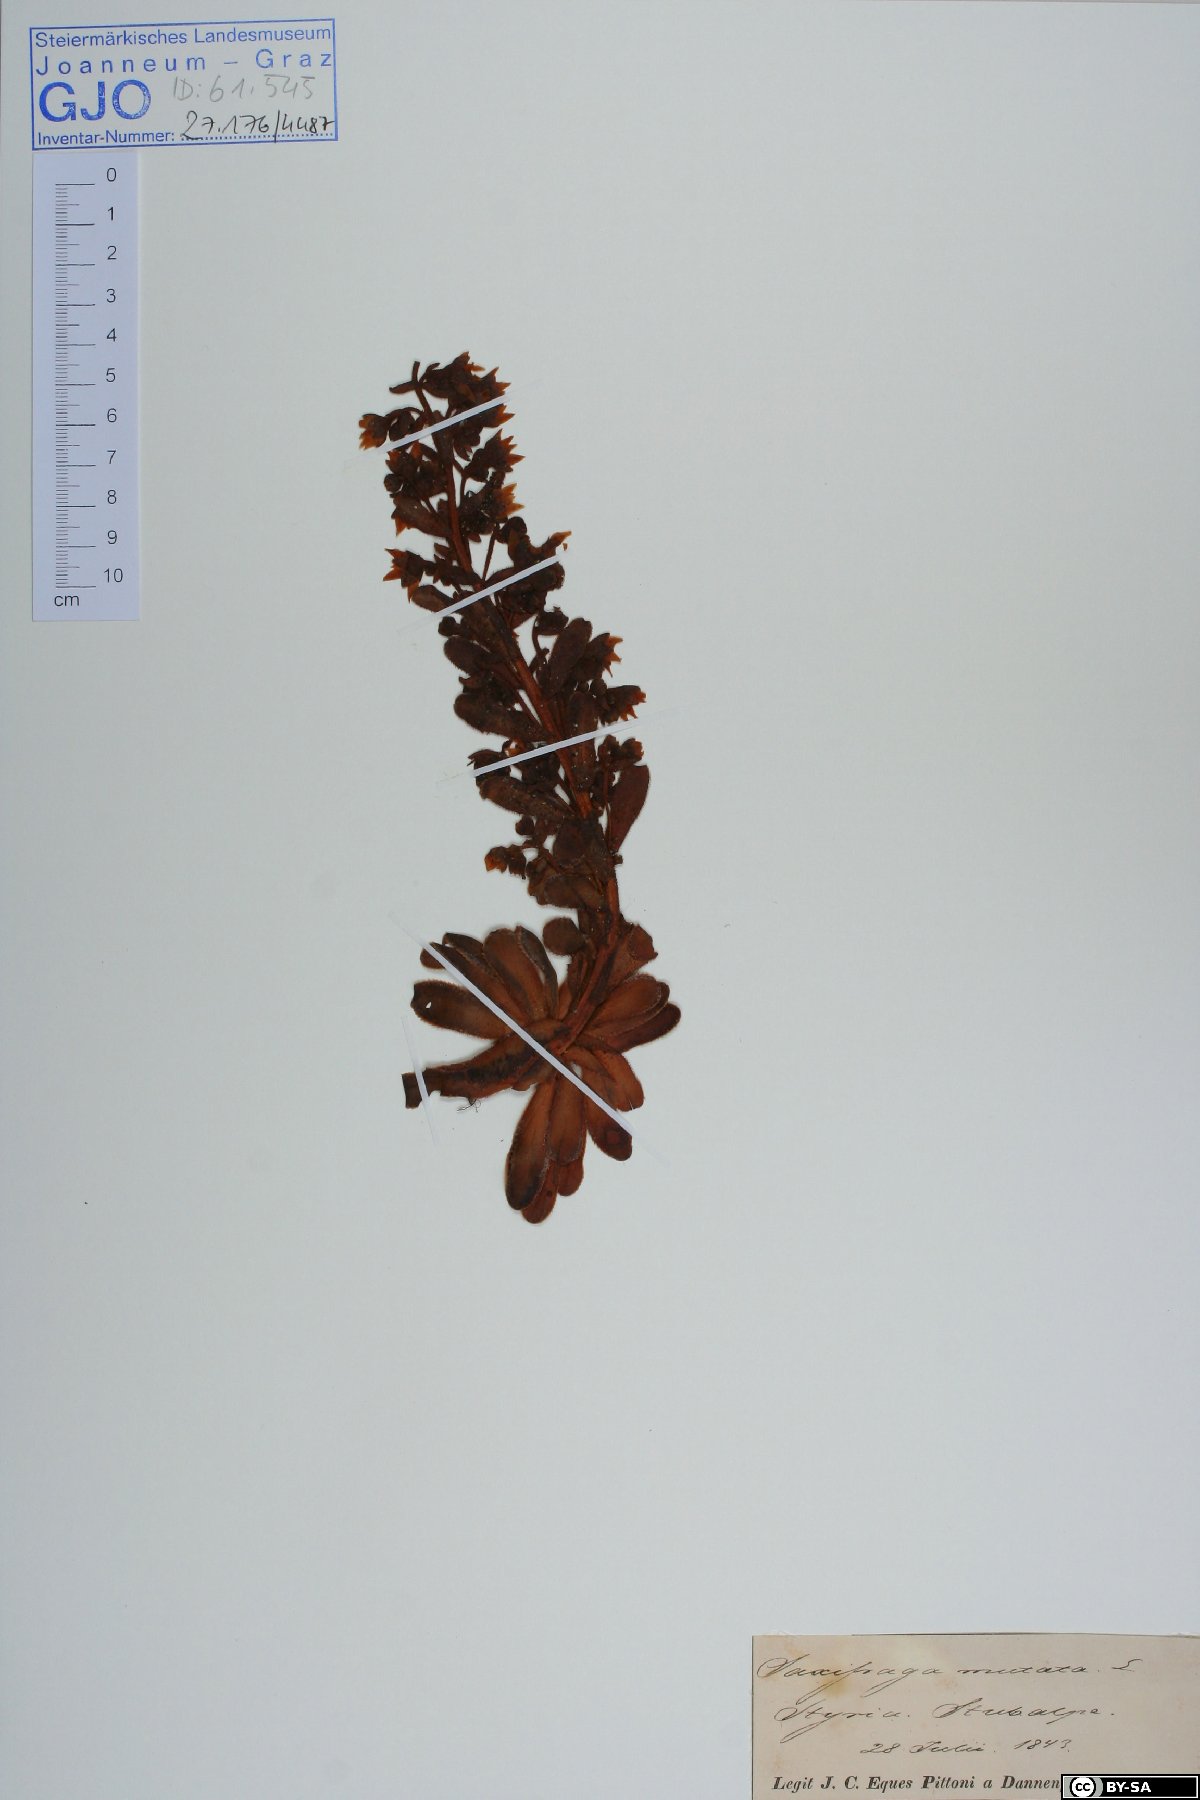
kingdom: Plantae
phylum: Tracheophyta
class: Magnoliopsida
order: Saxifragales
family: Saxifragaceae
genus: Saxifraga
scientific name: Saxifraga mutata
